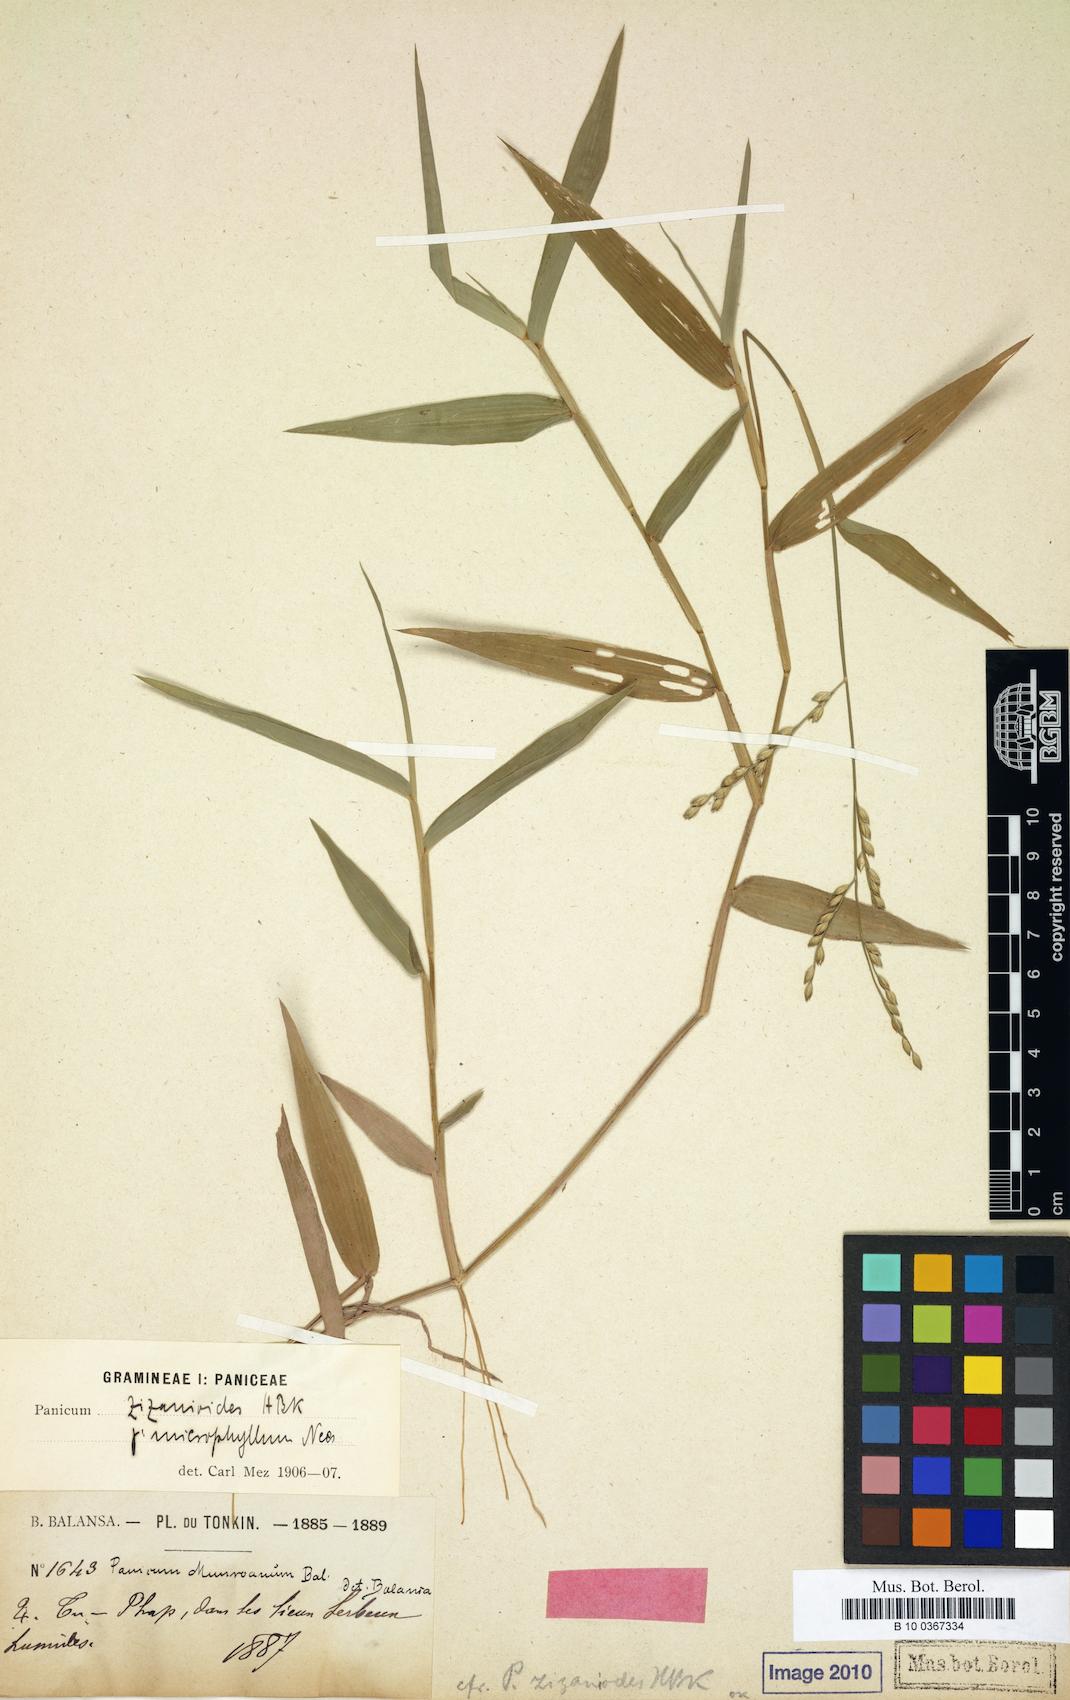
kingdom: Plantae
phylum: Tracheophyta
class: Liliopsida
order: Poales
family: Poaceae
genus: Acroceras
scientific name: Acroceras munroanum
